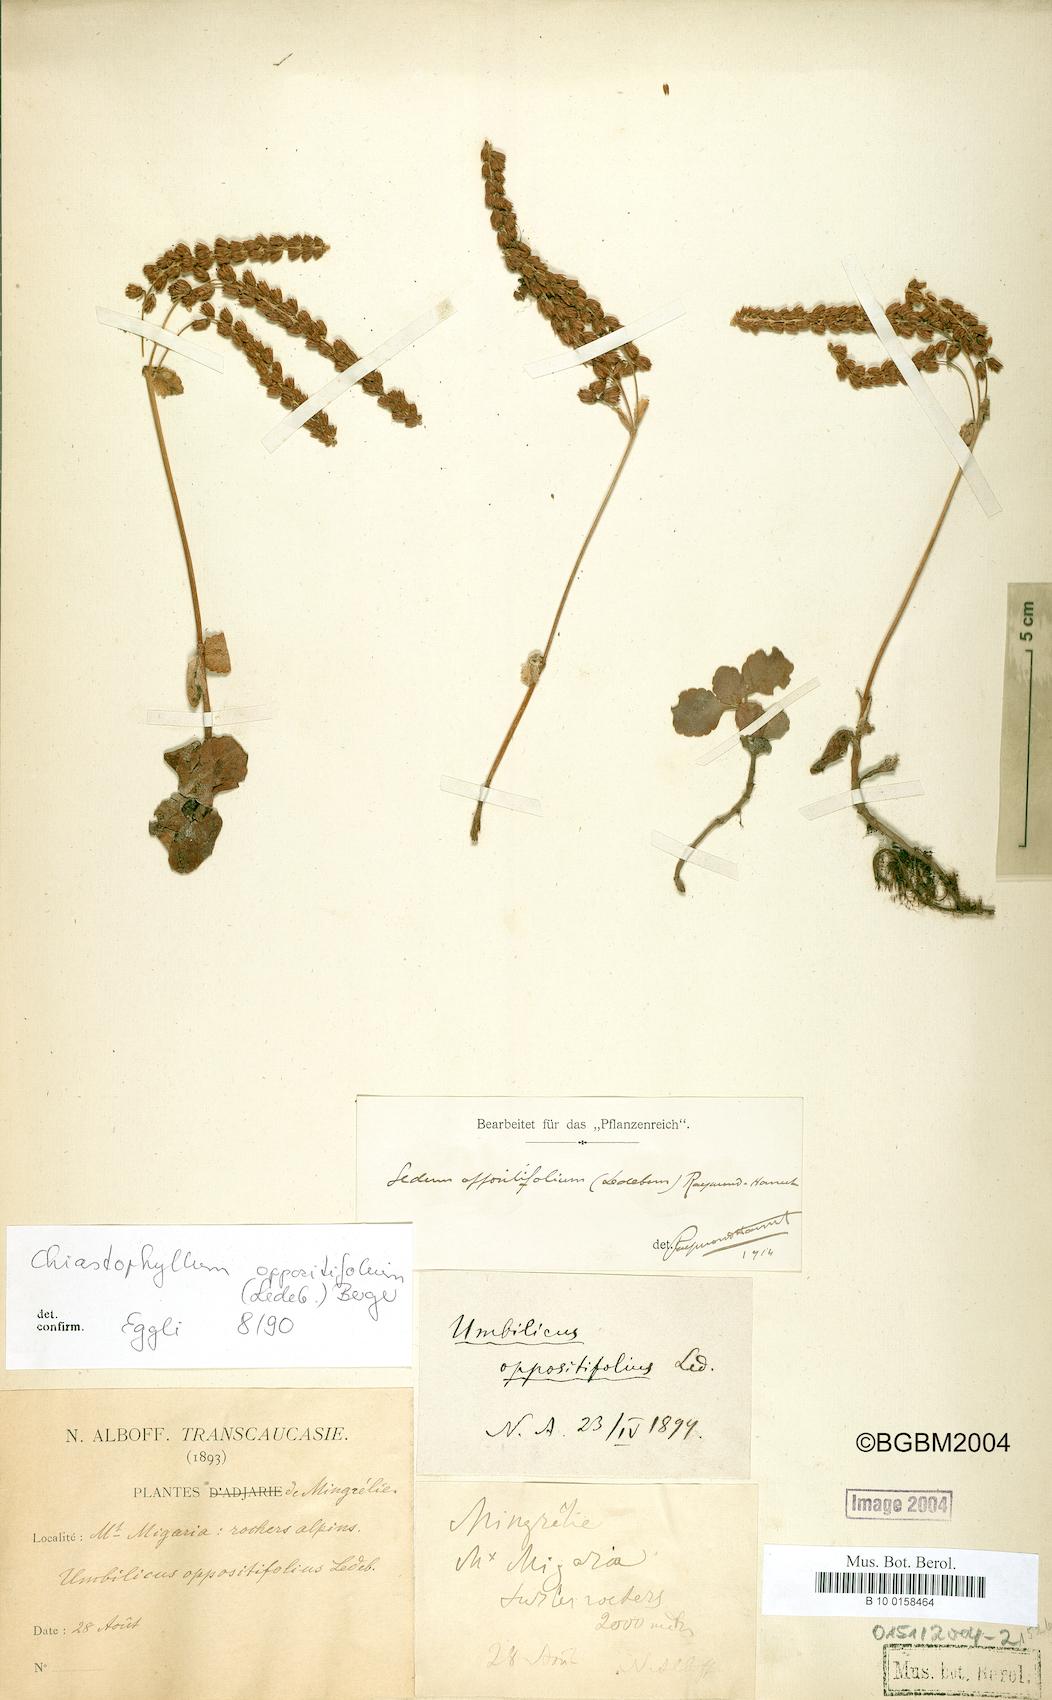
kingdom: Plantae
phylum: Tracheophyta
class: Magnoliopsida
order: Saxifragales
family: Crassulaceae
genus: Umbilicus
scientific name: Umbilicus oppositifolius
